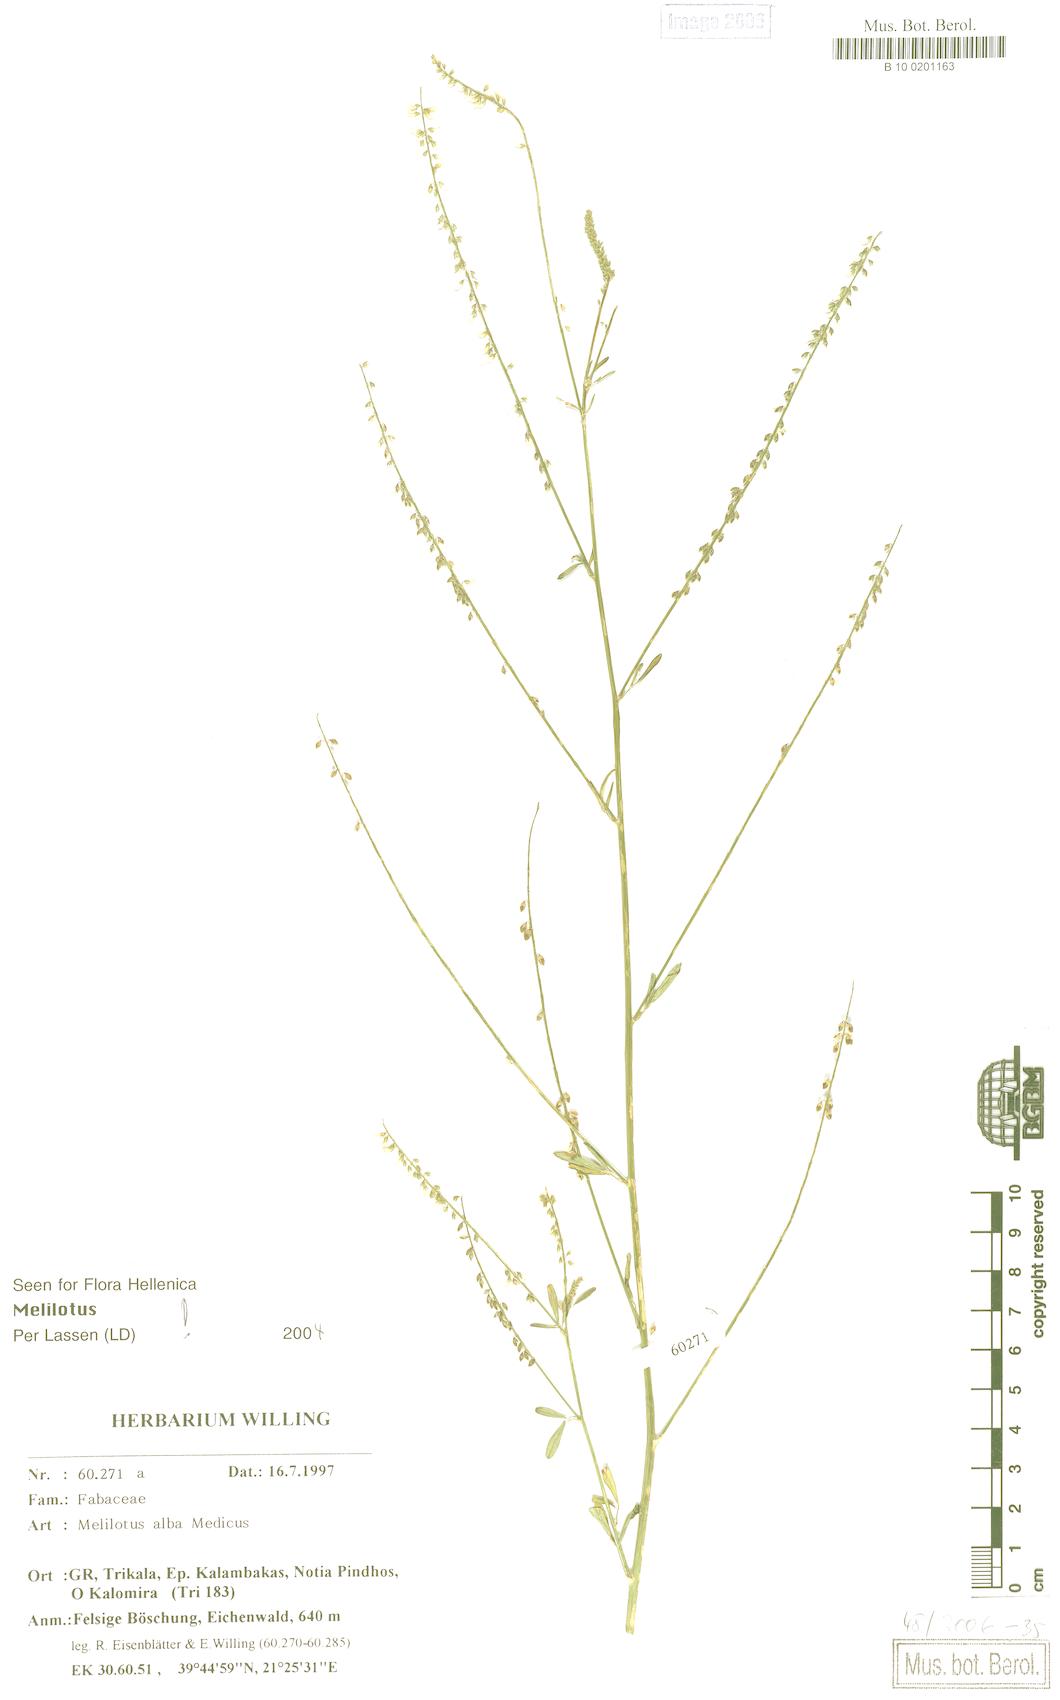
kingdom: Plantae
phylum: Tracheophyta
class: Magnoliopsida
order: Fabales
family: Fabaceae
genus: Melilotus
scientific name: Melilotus albus
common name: White melilot
